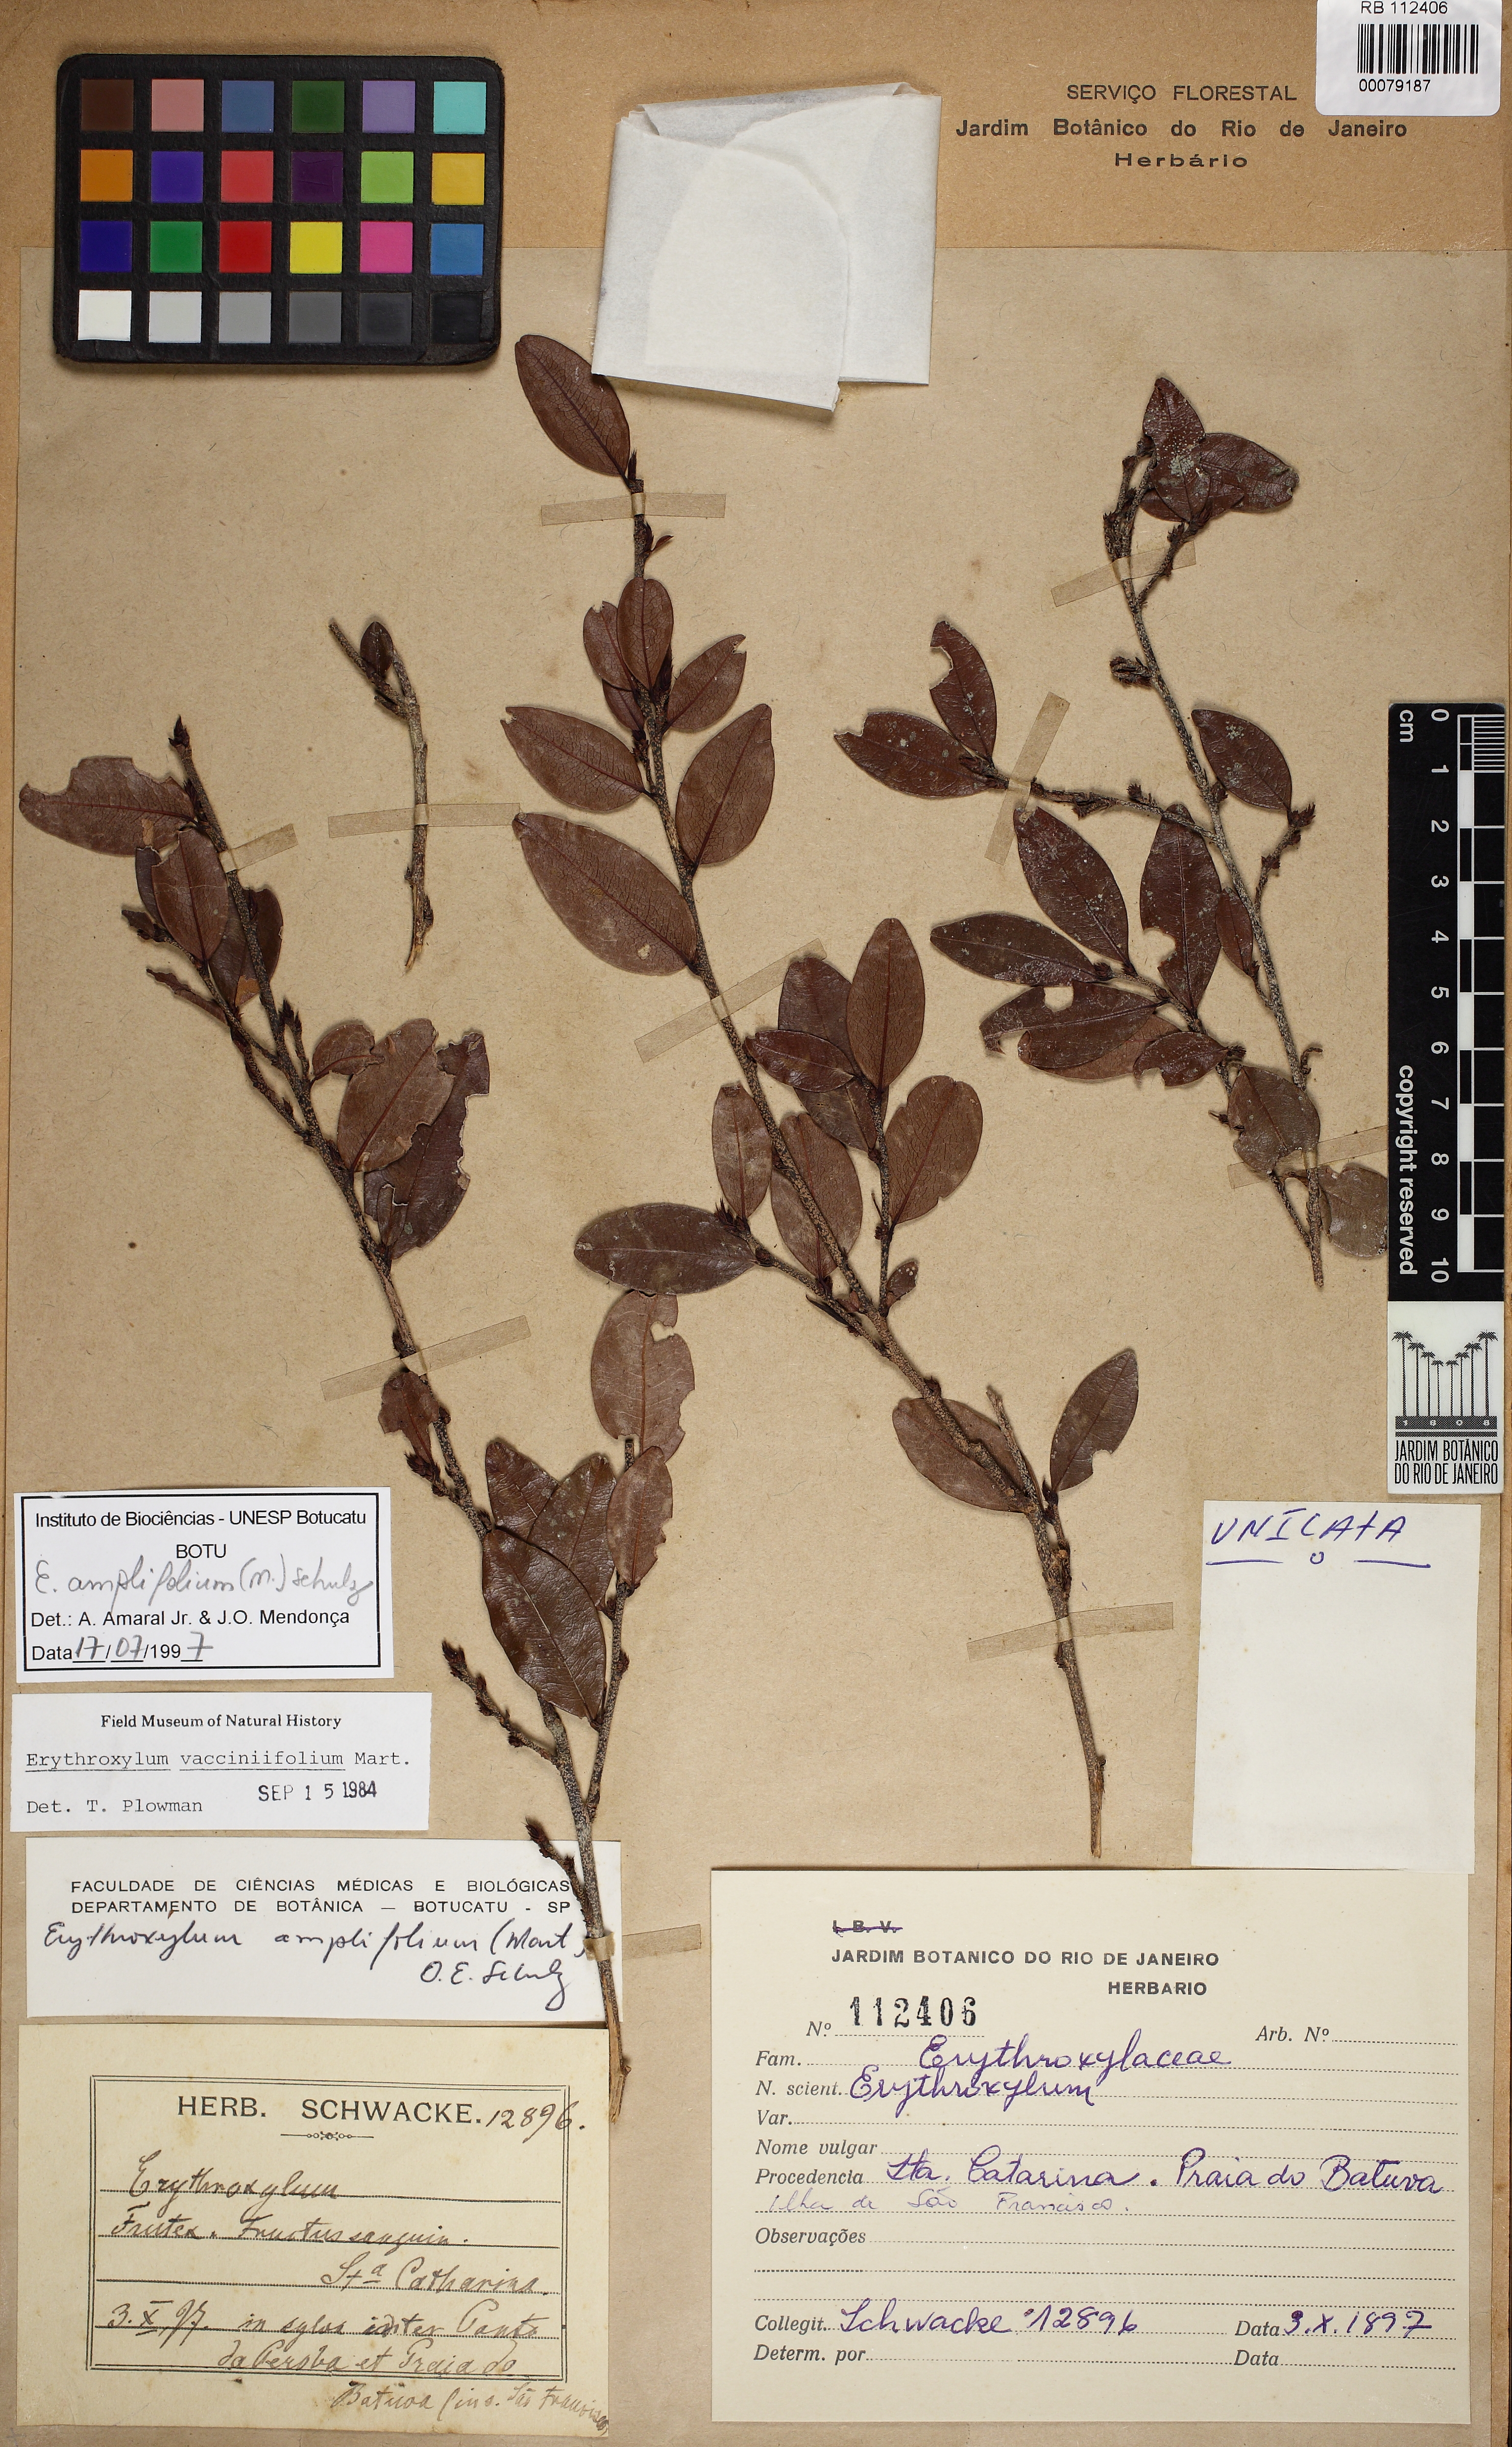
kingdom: Plantae
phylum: Tracheophyta
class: Magnoliopsida
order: Malpighiales
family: Erythroxylaceae
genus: Erythroxylum
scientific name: Erythroxylum umbu
